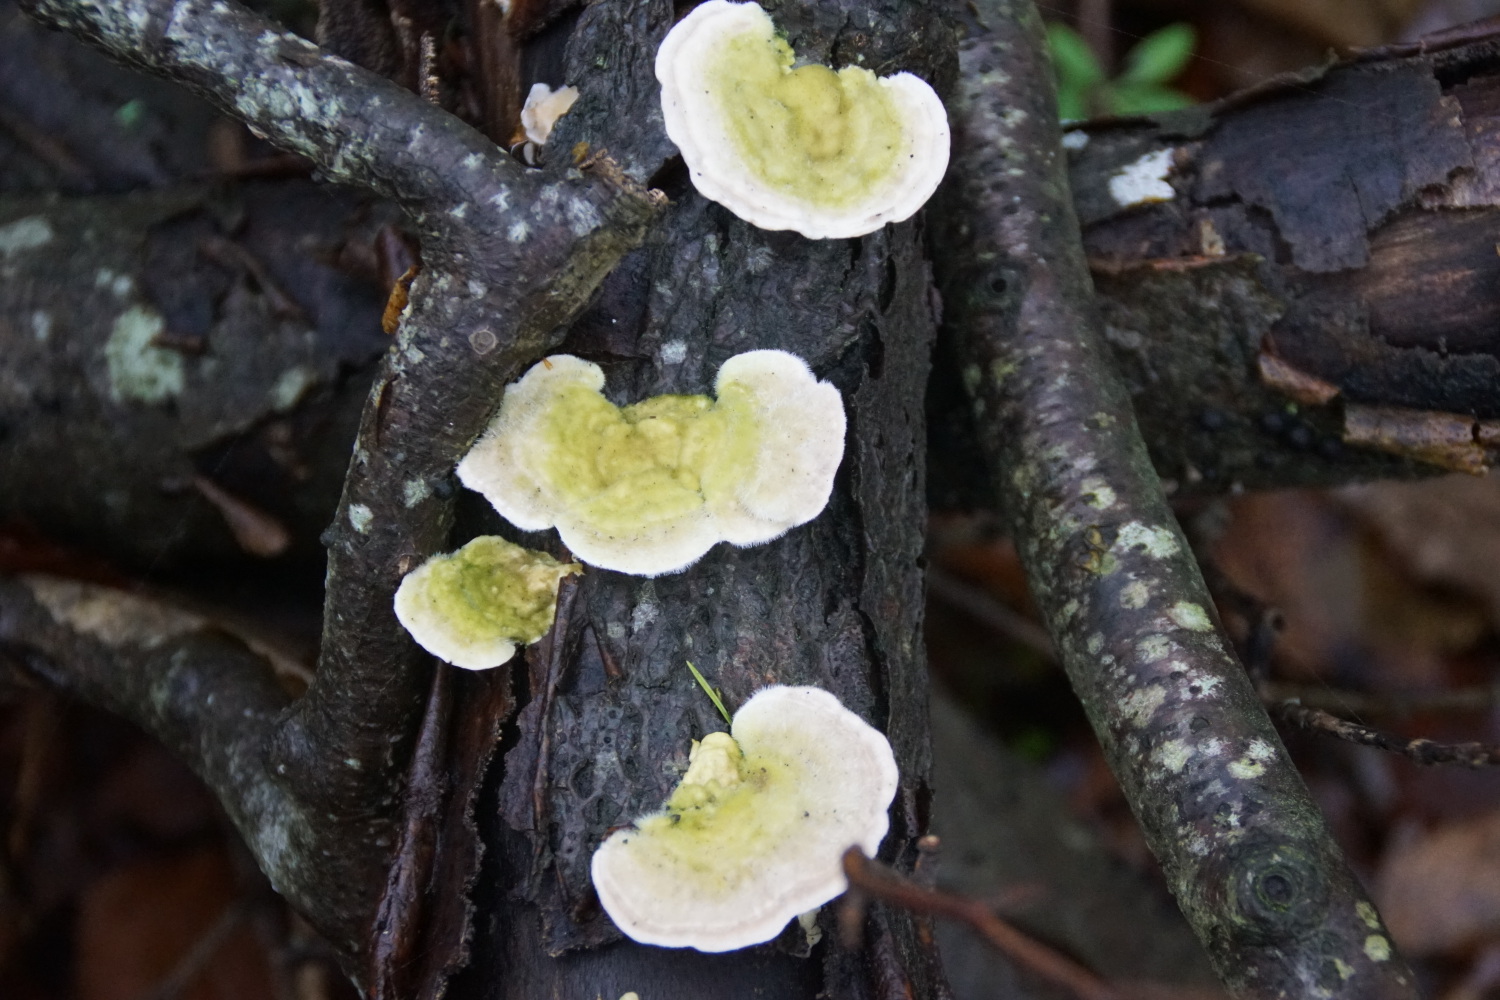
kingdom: Fungi
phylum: Basidiomycota
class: Agaricomycetes
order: Polyporales
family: Polyporaceae
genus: Trametes
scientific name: Trametes hirsuta
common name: håret læderporesvamp
